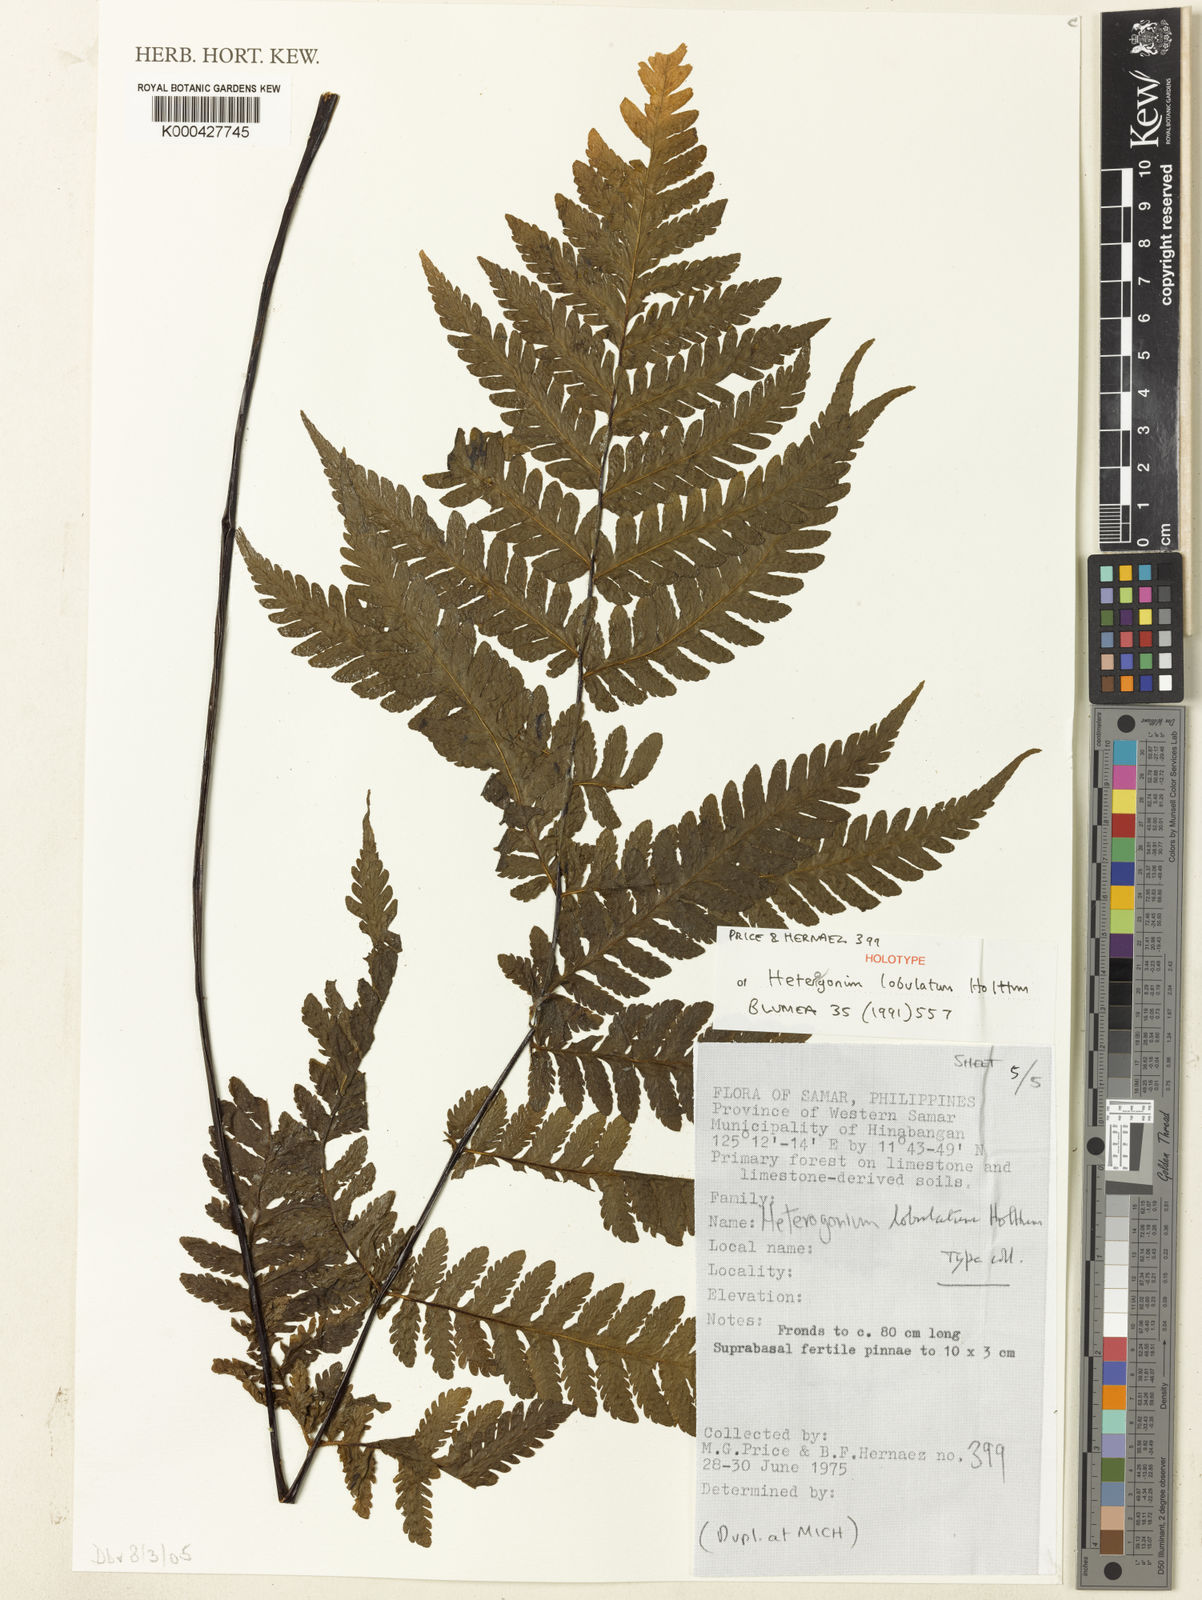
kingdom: Plantae
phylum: Tracheophyta
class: Polypodiopsida
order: Polypodiales
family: Tectariaceae
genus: Tectaria
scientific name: Tectaria samariana
